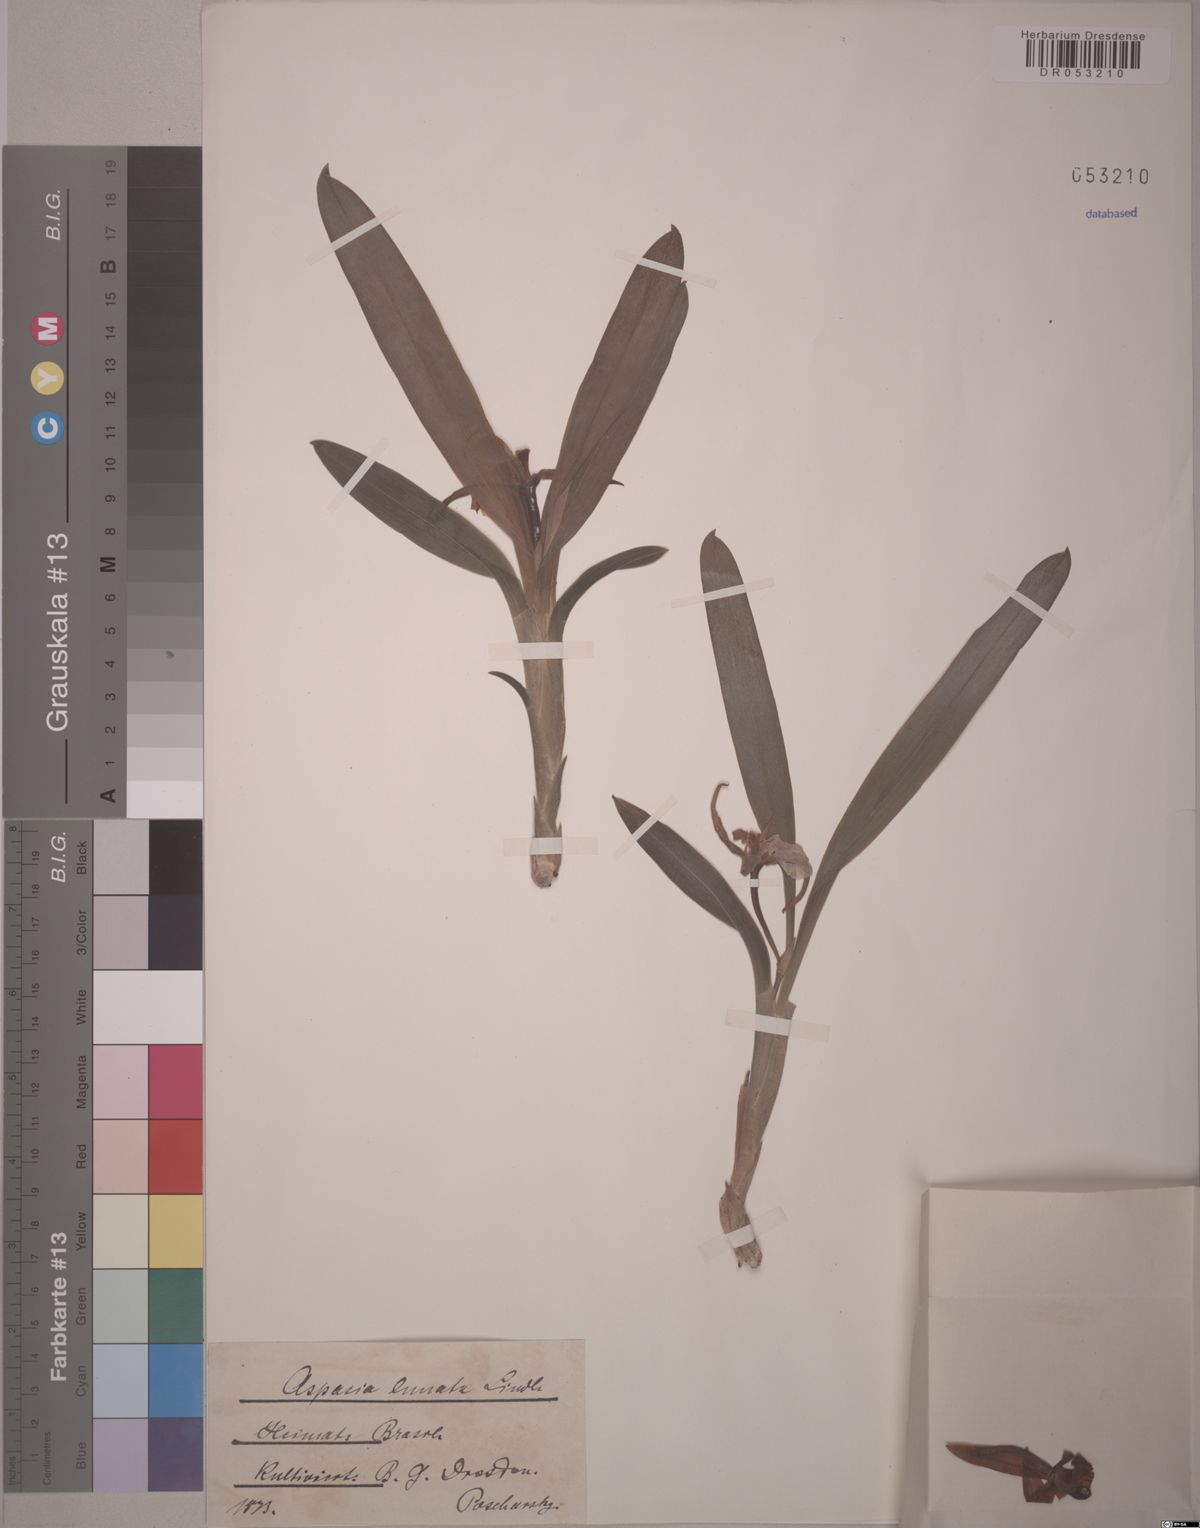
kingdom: Plantae
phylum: Tracheophyta
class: Liliopsida
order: Asparagales
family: Orchidaceae
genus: Aspasia
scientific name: Aspasia lunata
